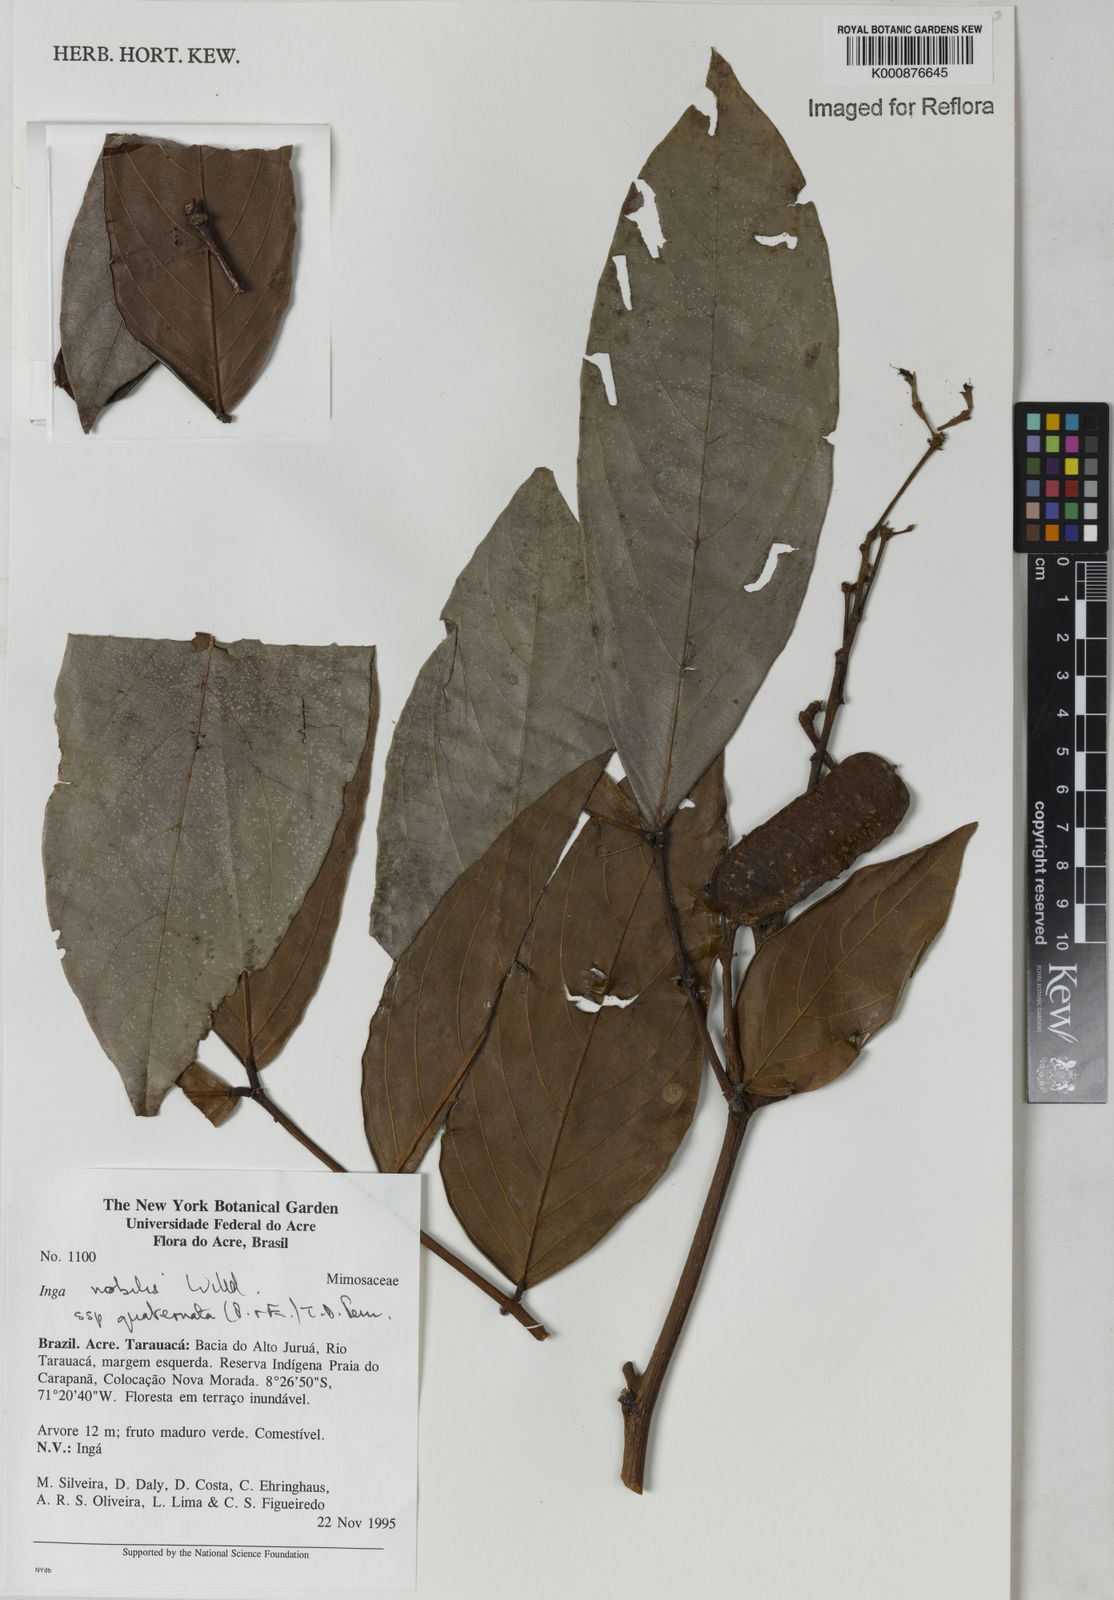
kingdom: Plantae
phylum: Tracheophyta
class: Magnoliopsida
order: Fabales
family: Fabaceae
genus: Inga
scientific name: Inga nobilis
